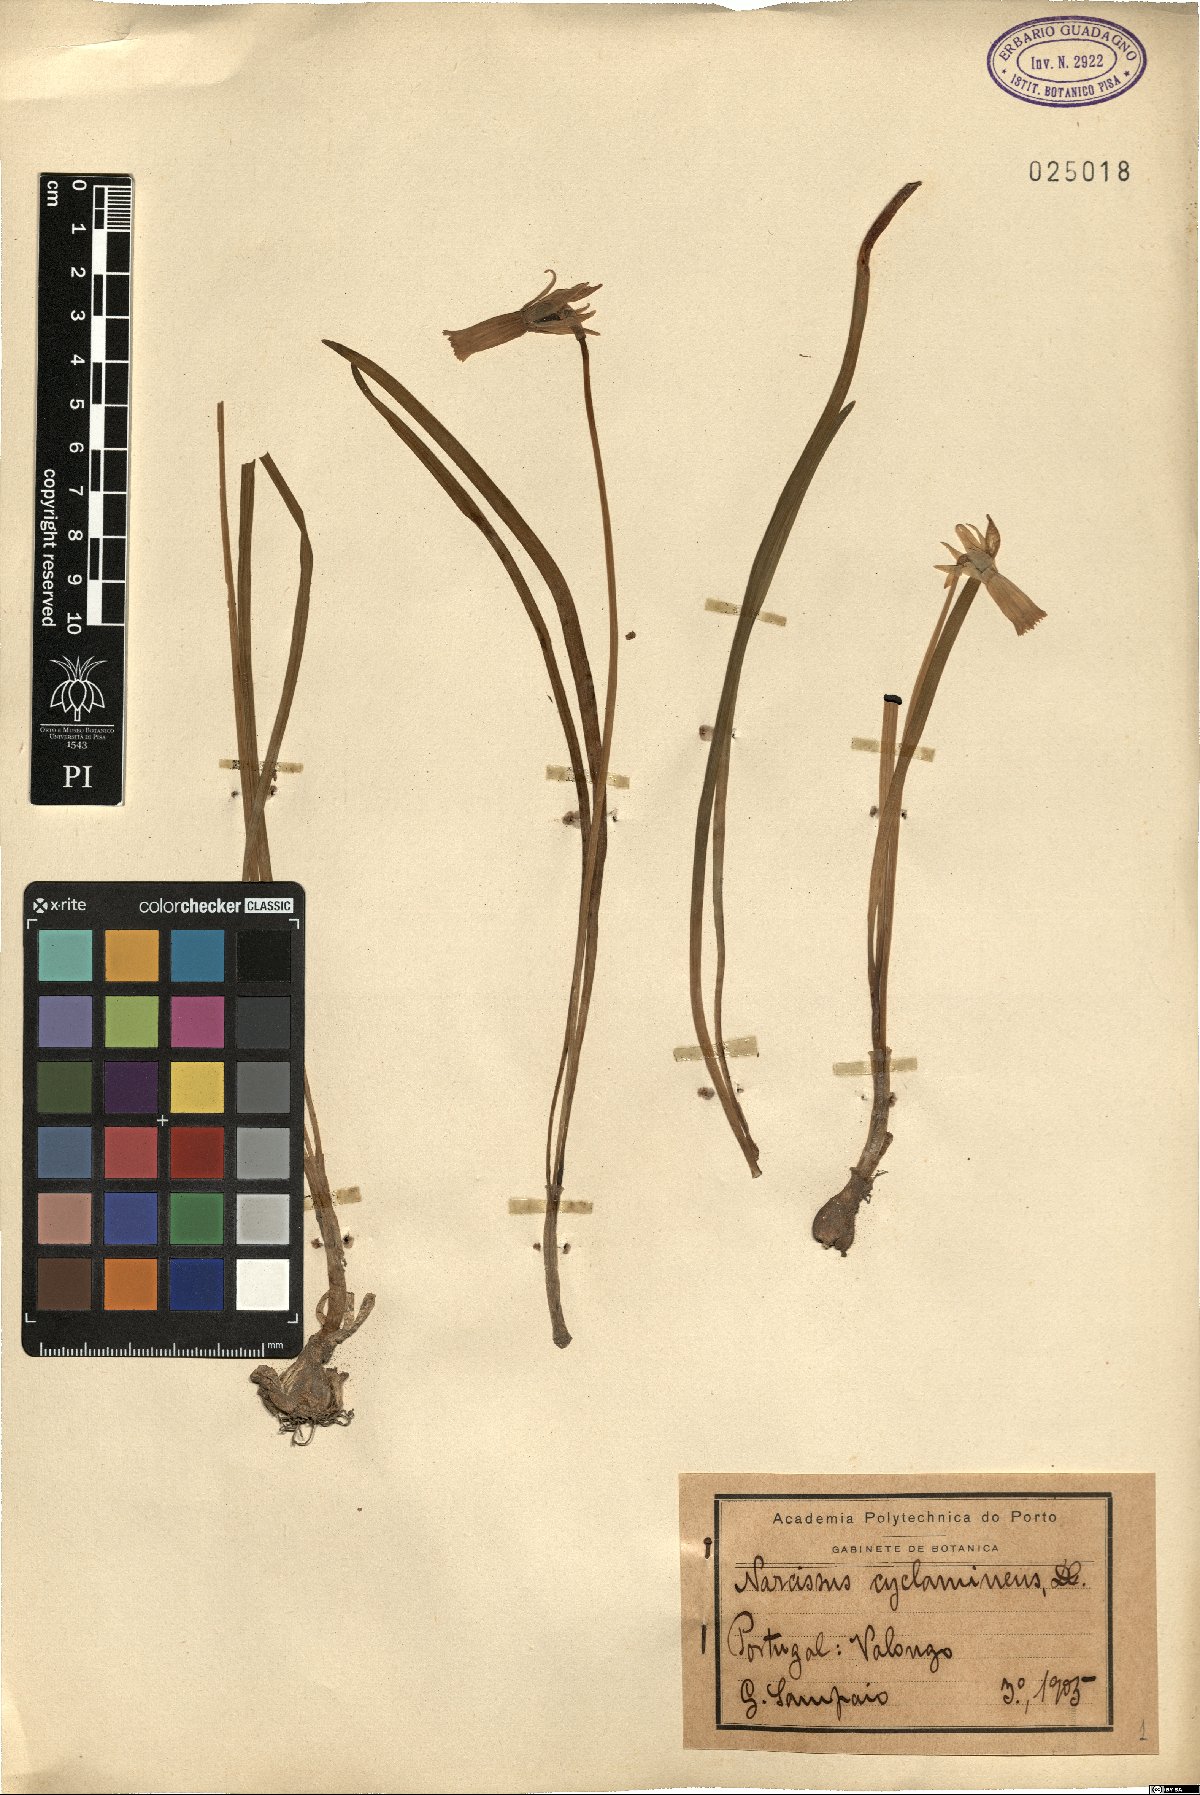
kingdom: Plantae
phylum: Tracheophyta
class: Liliopsida
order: Asparagales
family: Amaryllidaceae
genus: Narcissus
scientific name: Narcissus cyclamineus
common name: Cyclamen-flowered daffodil
